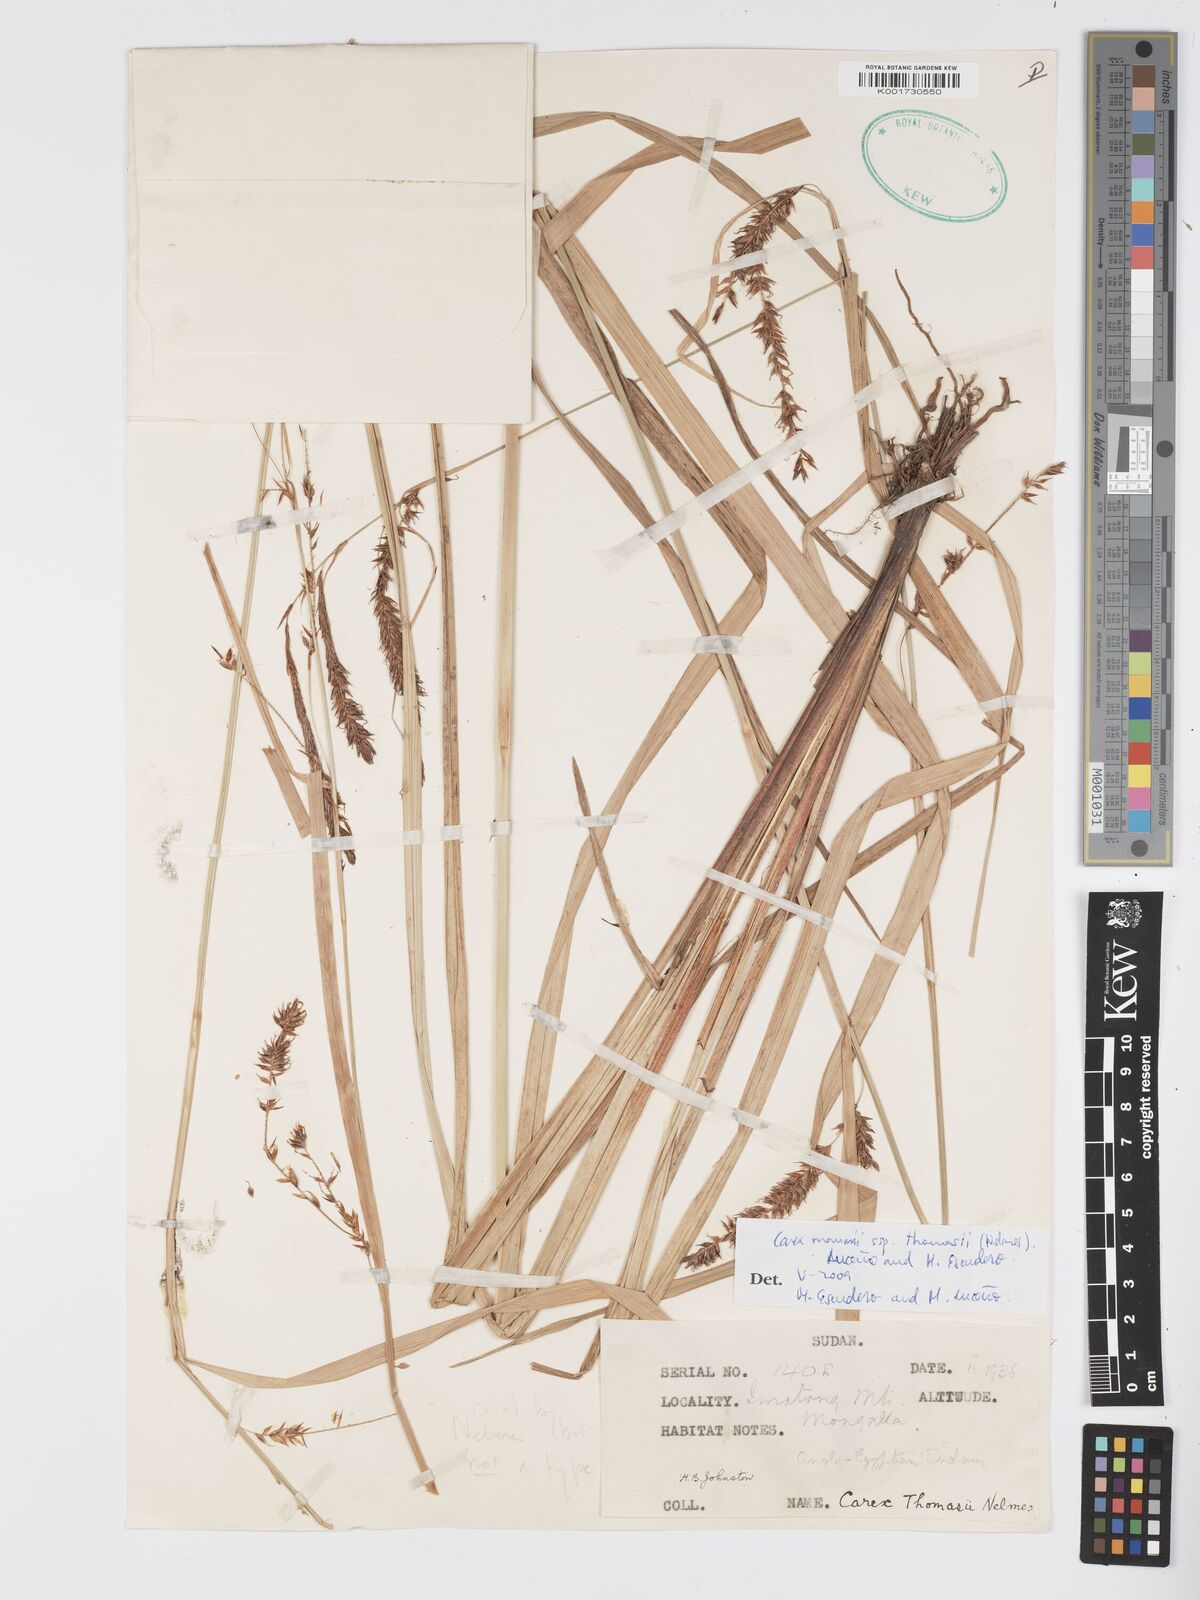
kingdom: Plantae
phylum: Tracheophyta
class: Liliopsida
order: Poales
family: Cyperaceae
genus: Carex
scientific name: Carex mannii
